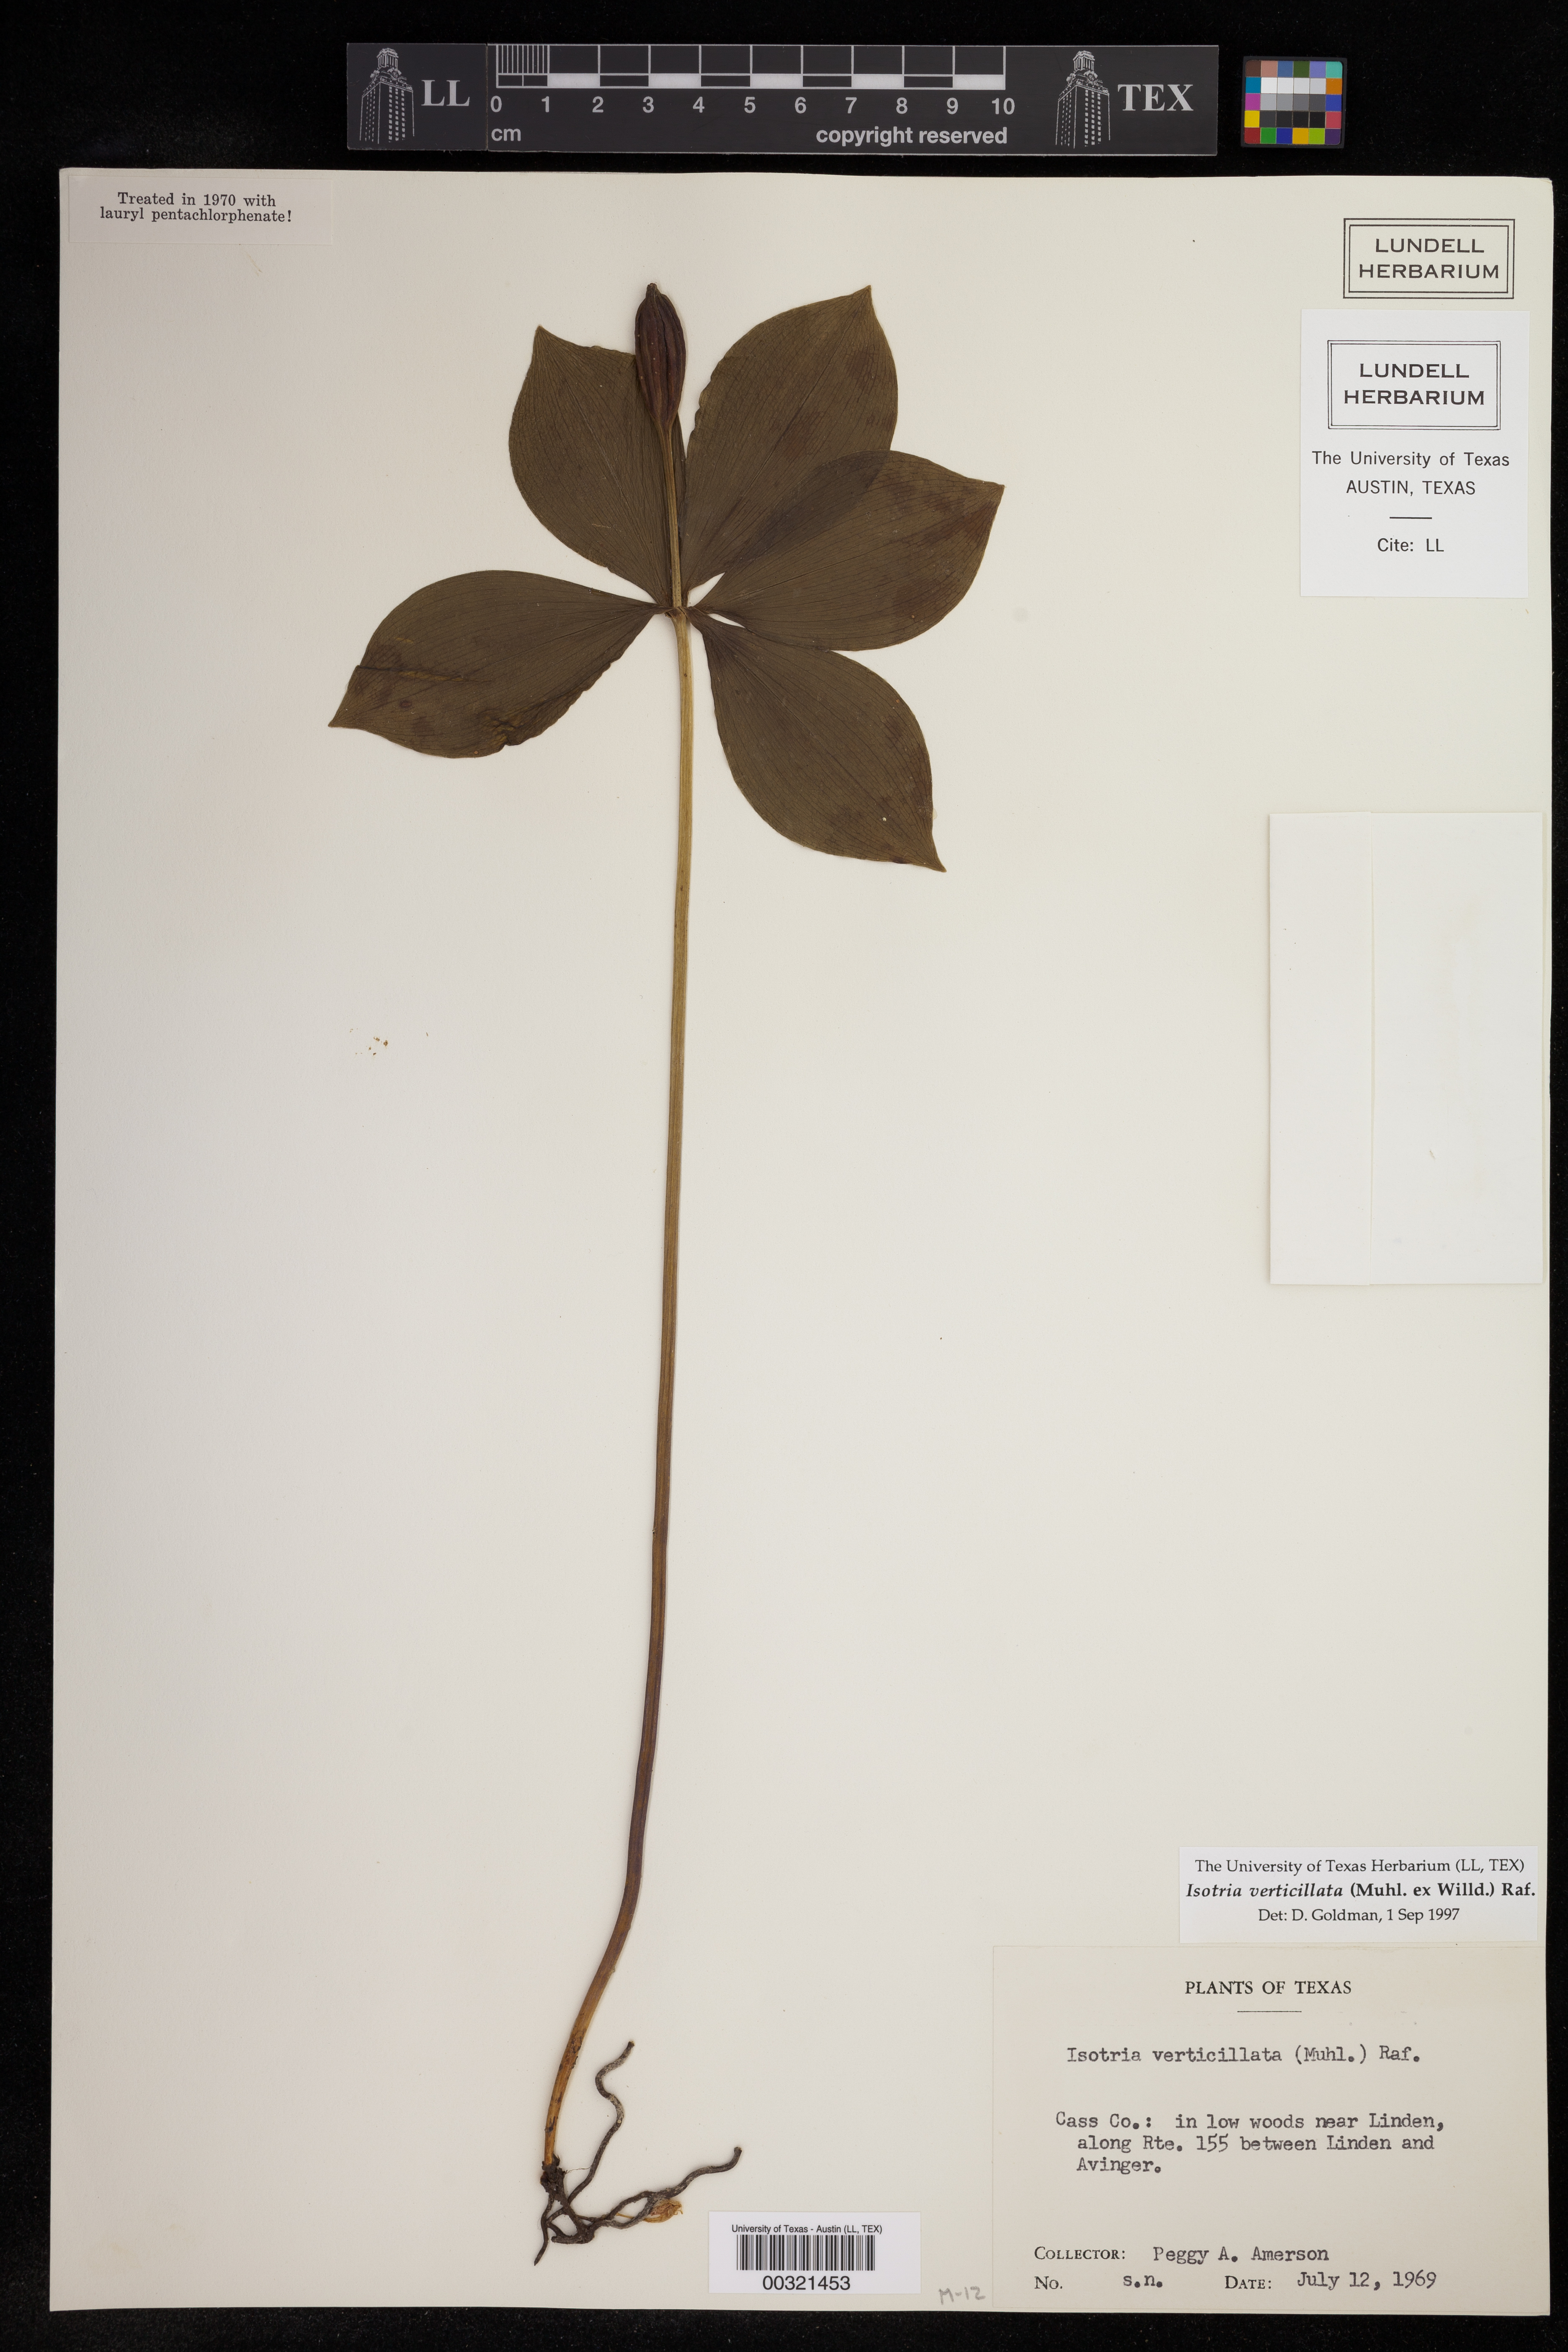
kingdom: Plantae
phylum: Tracheophyta
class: Liliopsida
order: Asparagales
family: Orchidaceae
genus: Isotria
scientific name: Isotria verticillata
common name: Large whorled pogonia
